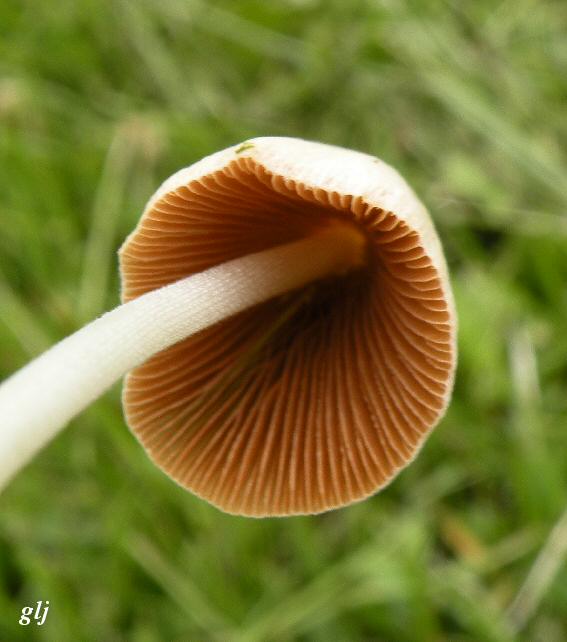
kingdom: Fungi
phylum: Basidiomycota
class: Agaricomycetes
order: Agaricales
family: Bolbitiaceae
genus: Conocybe
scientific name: Conocybe apala
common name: mælkehvid keglehat
